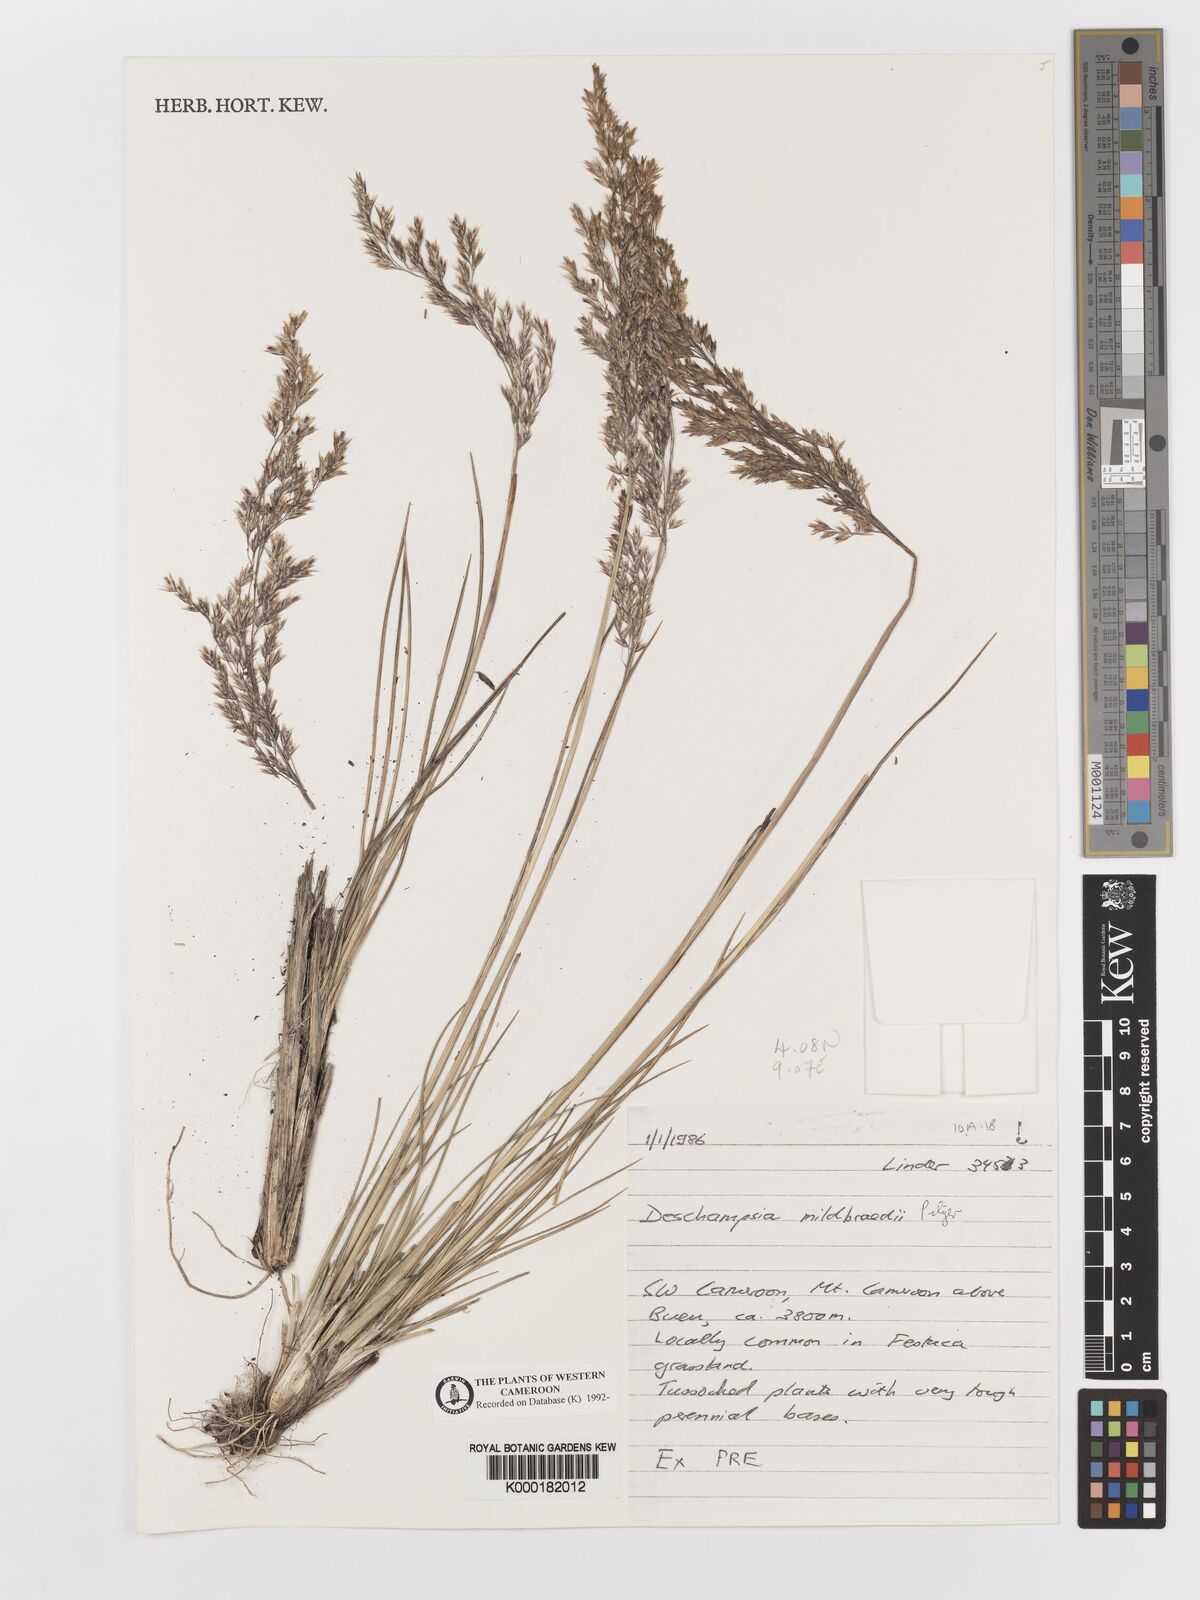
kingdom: Plantae
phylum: Tracheophyta
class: Liliopsida
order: Poales
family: Poaceae
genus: Deschampsia
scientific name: Deschampsia mildbraedii
